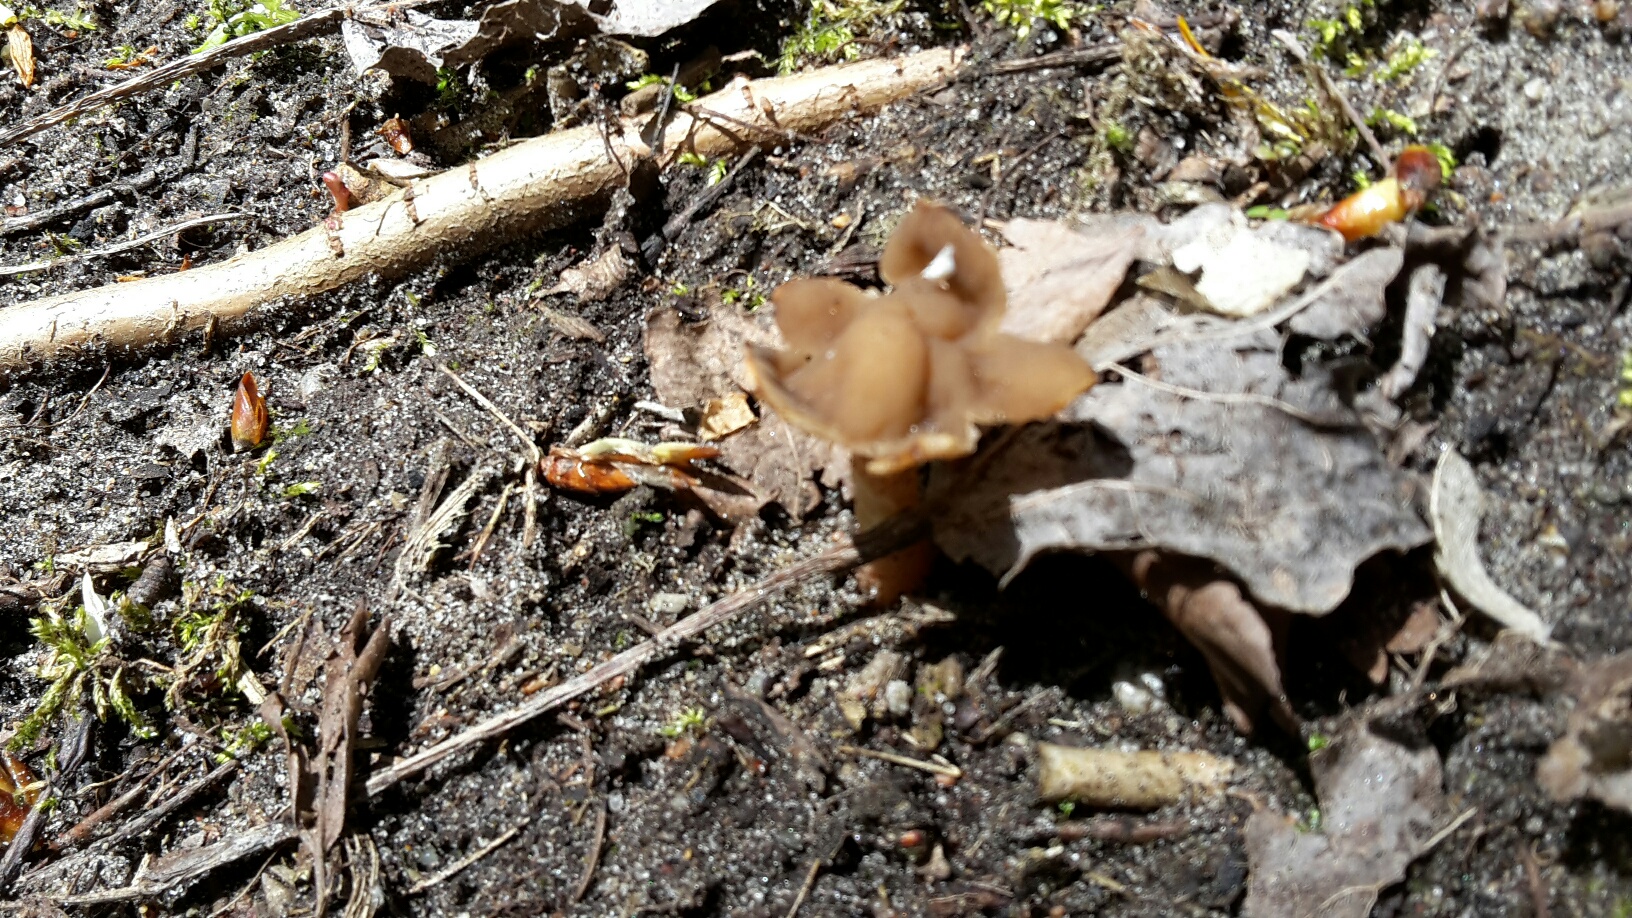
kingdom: Fungi
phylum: Ascomycota
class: Pezizomycetes
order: Pezizales
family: Morchellaceae
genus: Verpa
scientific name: Verpa conica
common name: glat klokkemorkel
